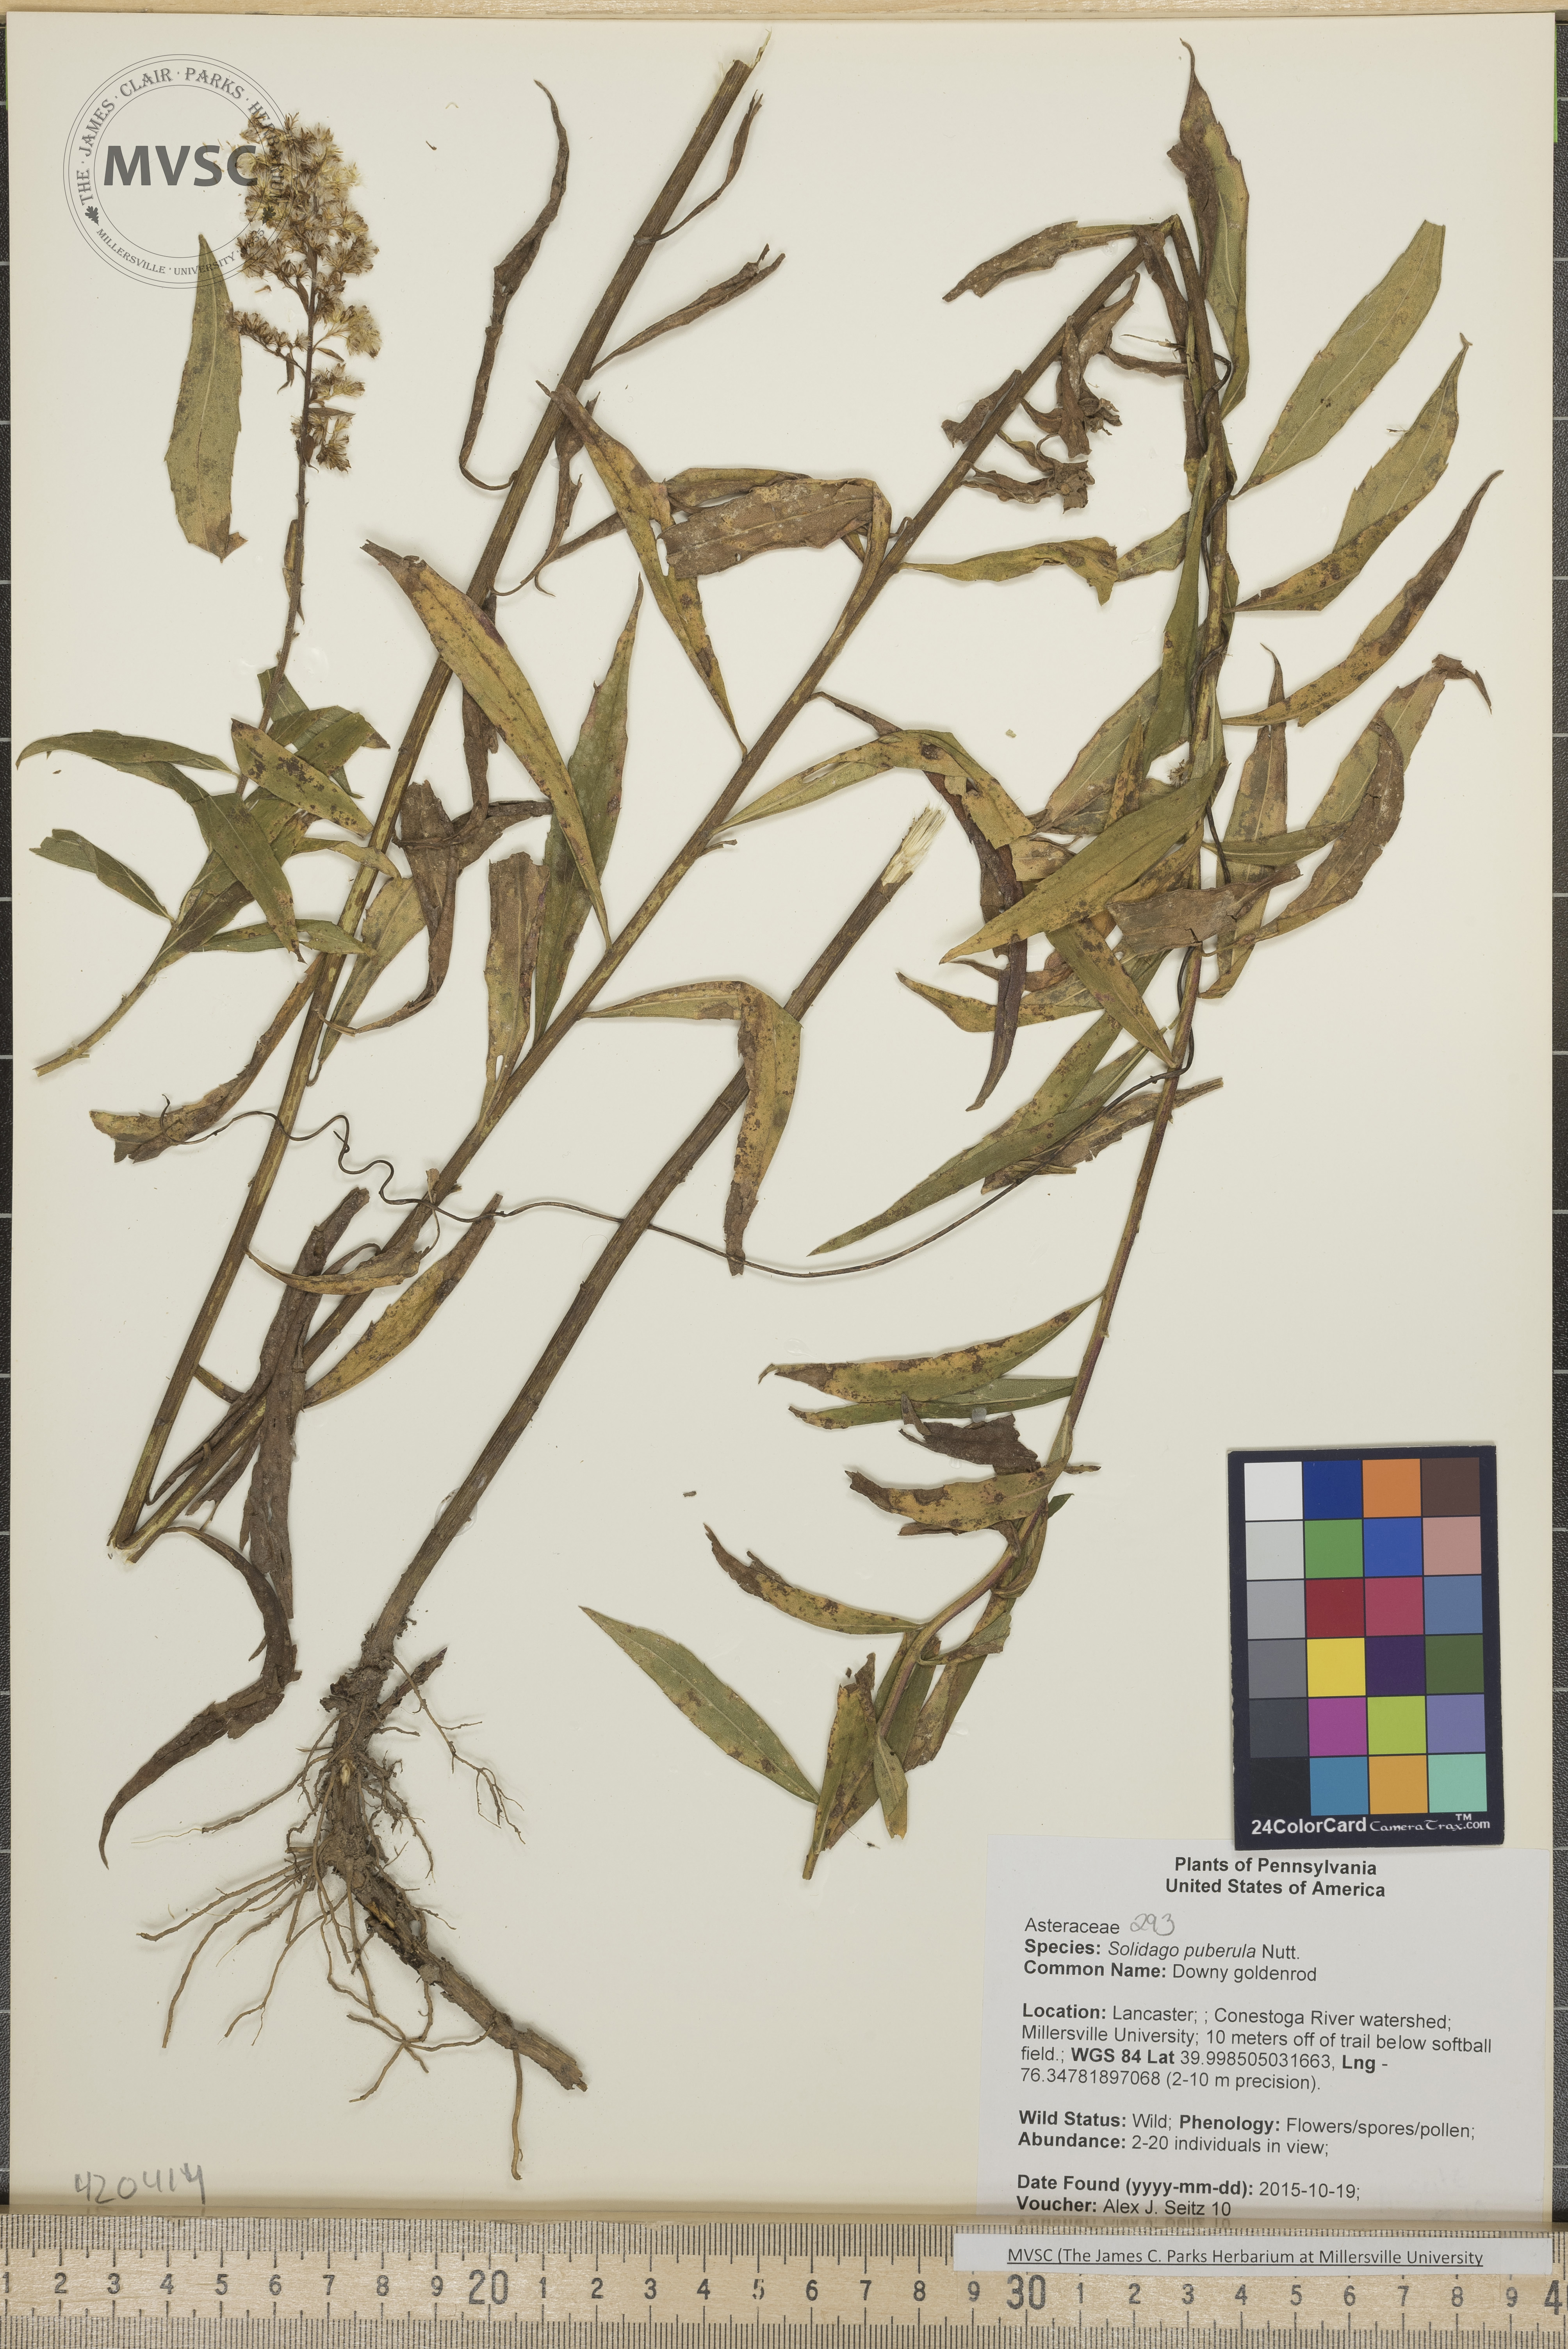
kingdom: Plantae
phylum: Tracheophyta
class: Magnoliopsida
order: Asterales
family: Asteraceae
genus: Solidago
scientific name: Solidago puberula
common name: Downy Goldenrod
